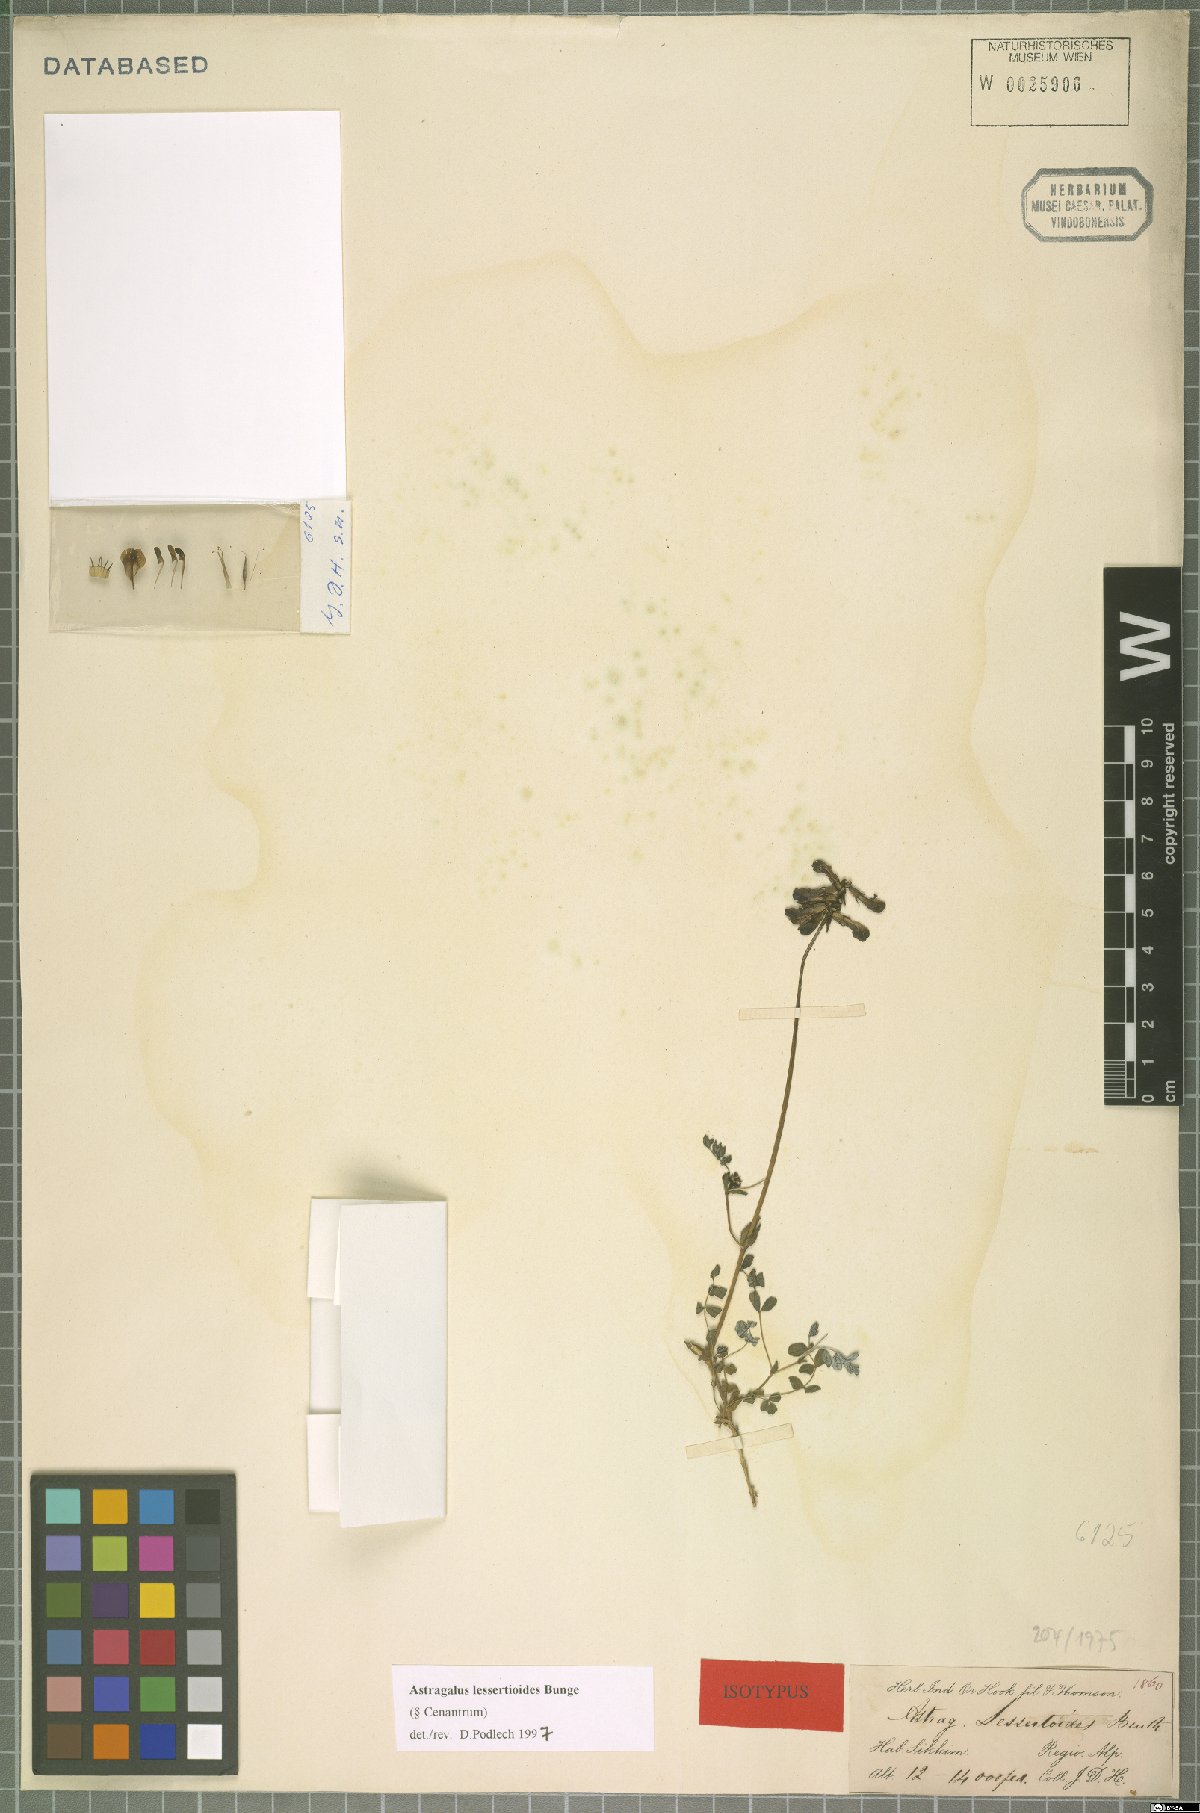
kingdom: Plantae
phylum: Tracheophyta
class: Magnoliopsida
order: Fabales
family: Fabaceae
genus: Astragalus
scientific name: Astragalus lessertioides
